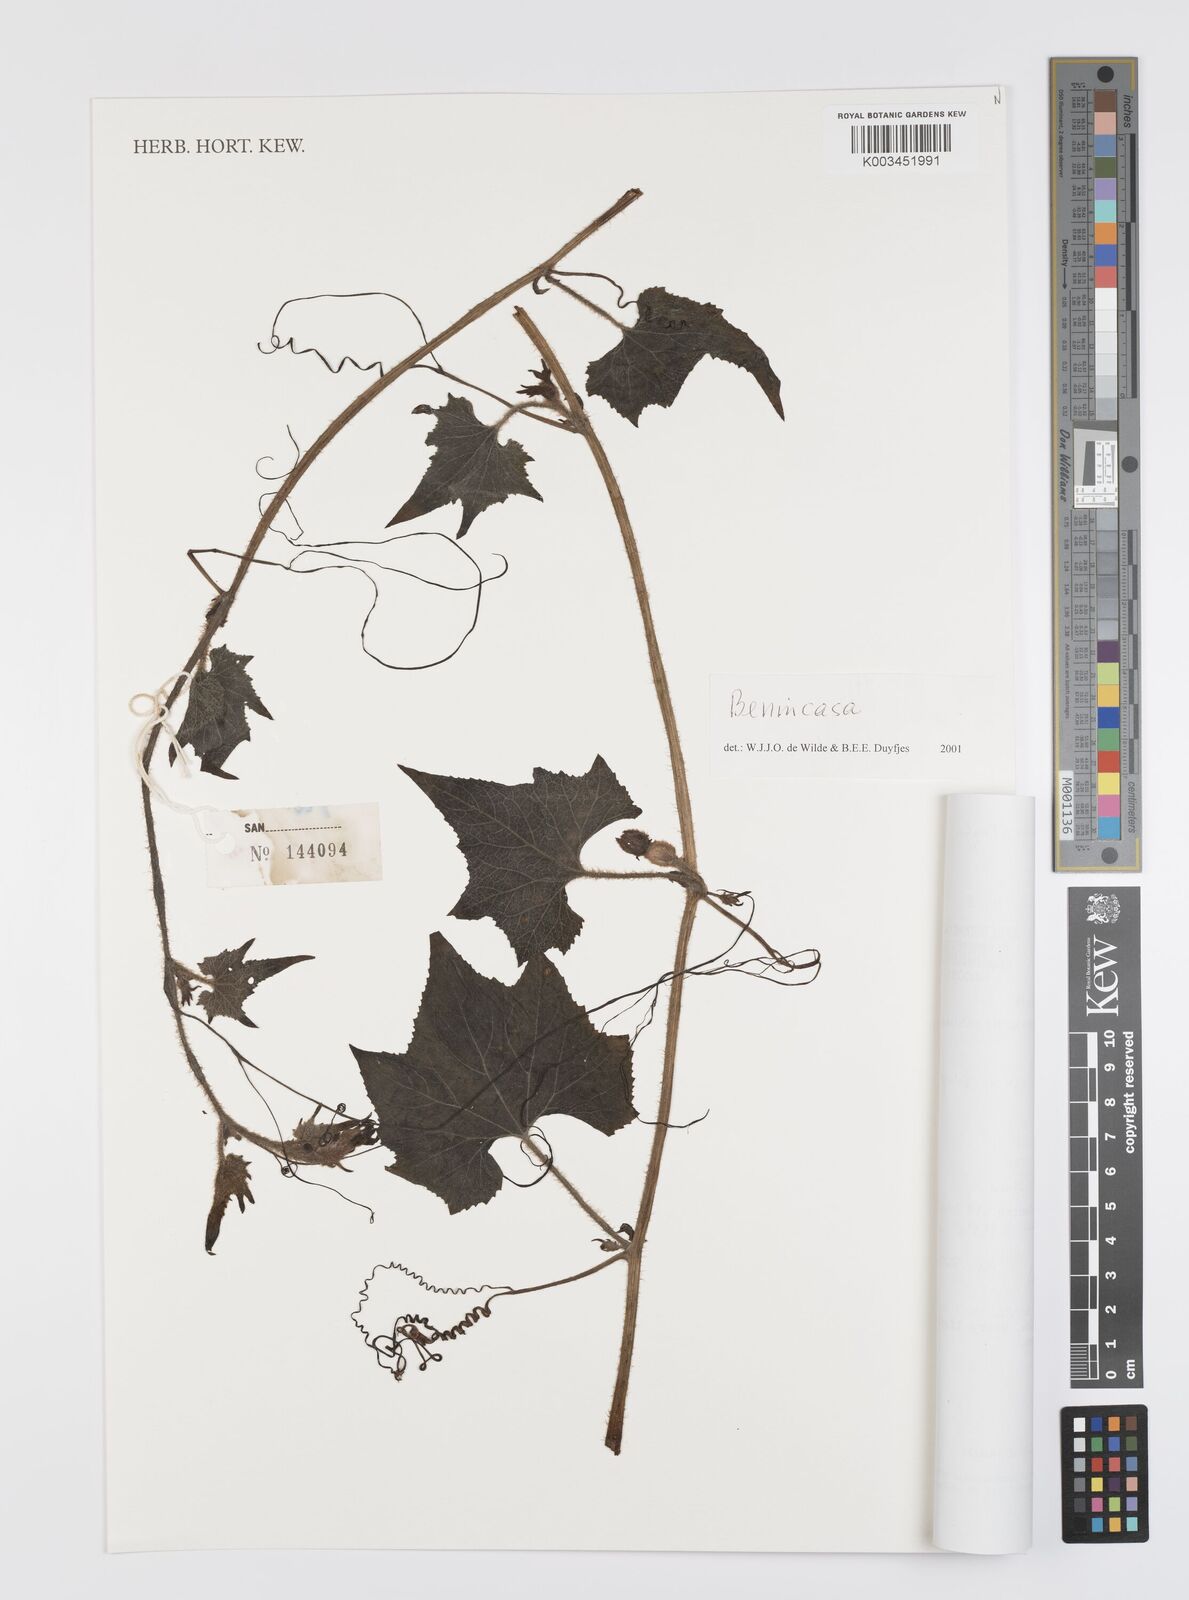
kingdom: Plantae
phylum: Tracheophyta
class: Magnoliopsida
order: Cucurbitales
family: Cucurbitaceae
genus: Benincasa
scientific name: Benincasa pruriens
